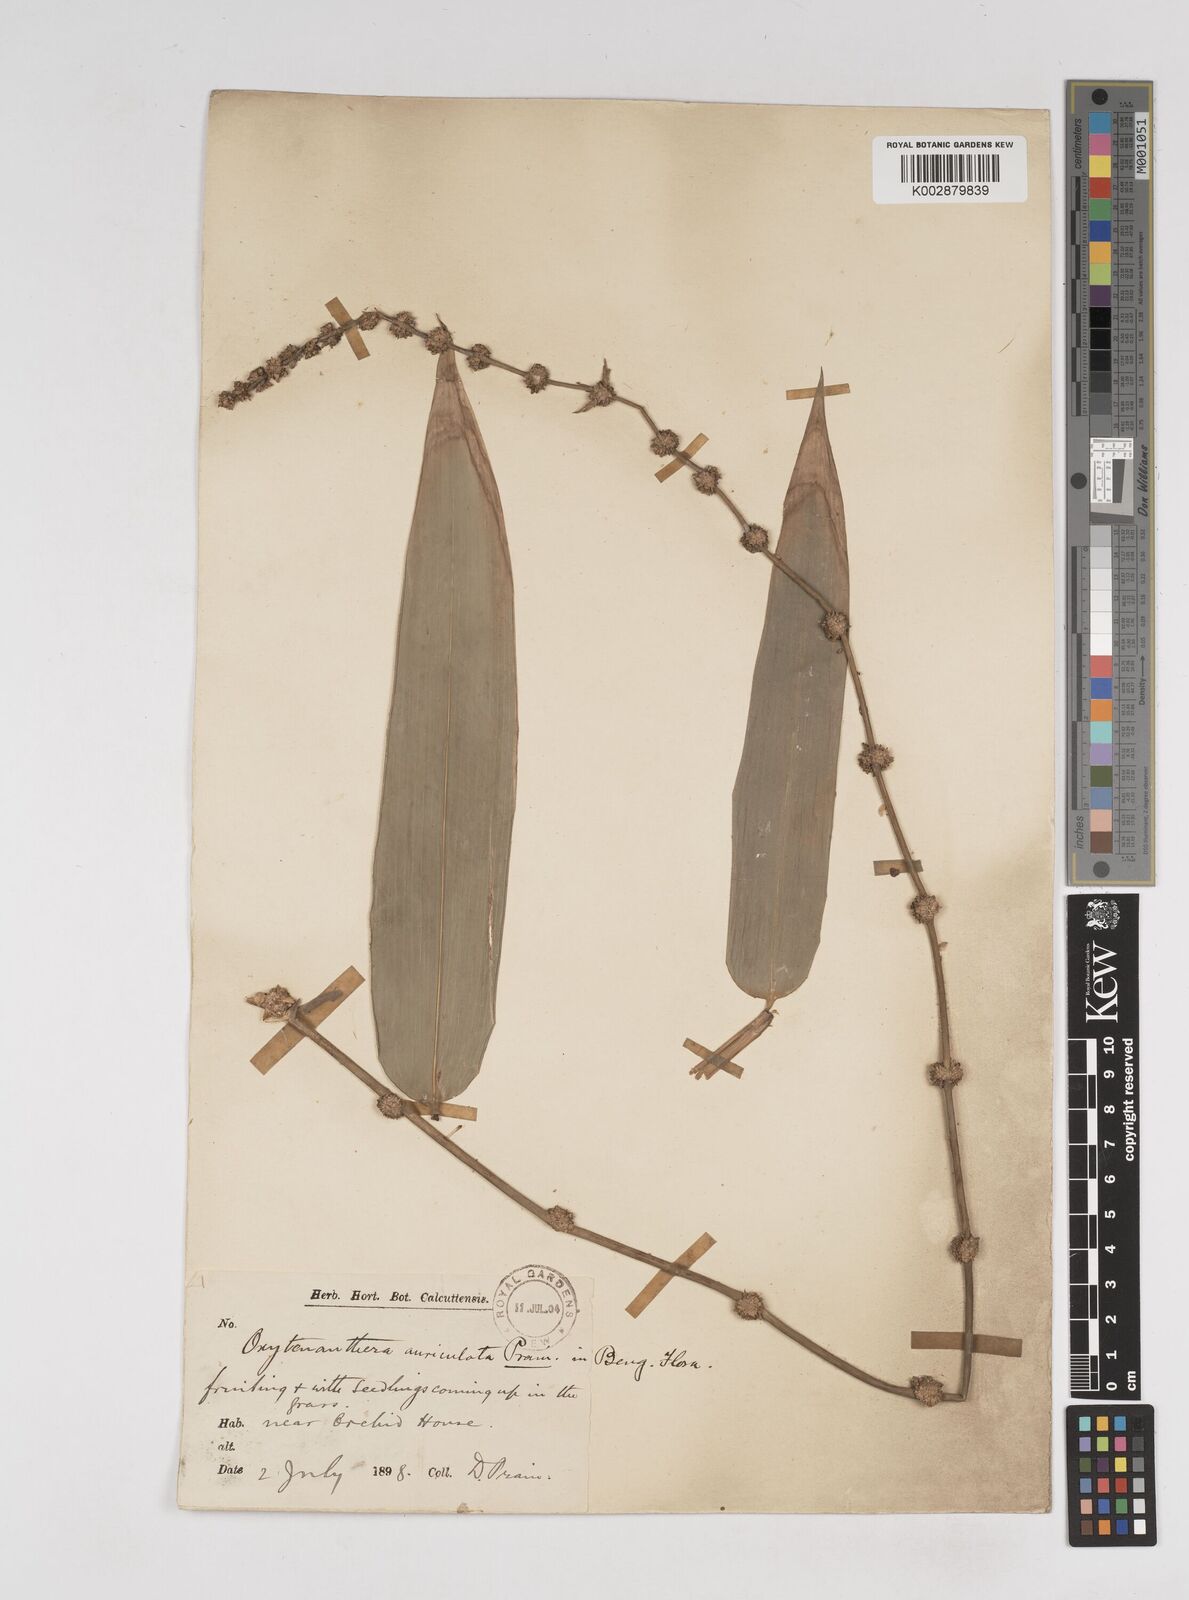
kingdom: Plantae
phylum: Tracheophyta
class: Liliopsida
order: Poales
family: Poaceae
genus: Gigantochloa
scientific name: Gigantochloa nigrociliata
